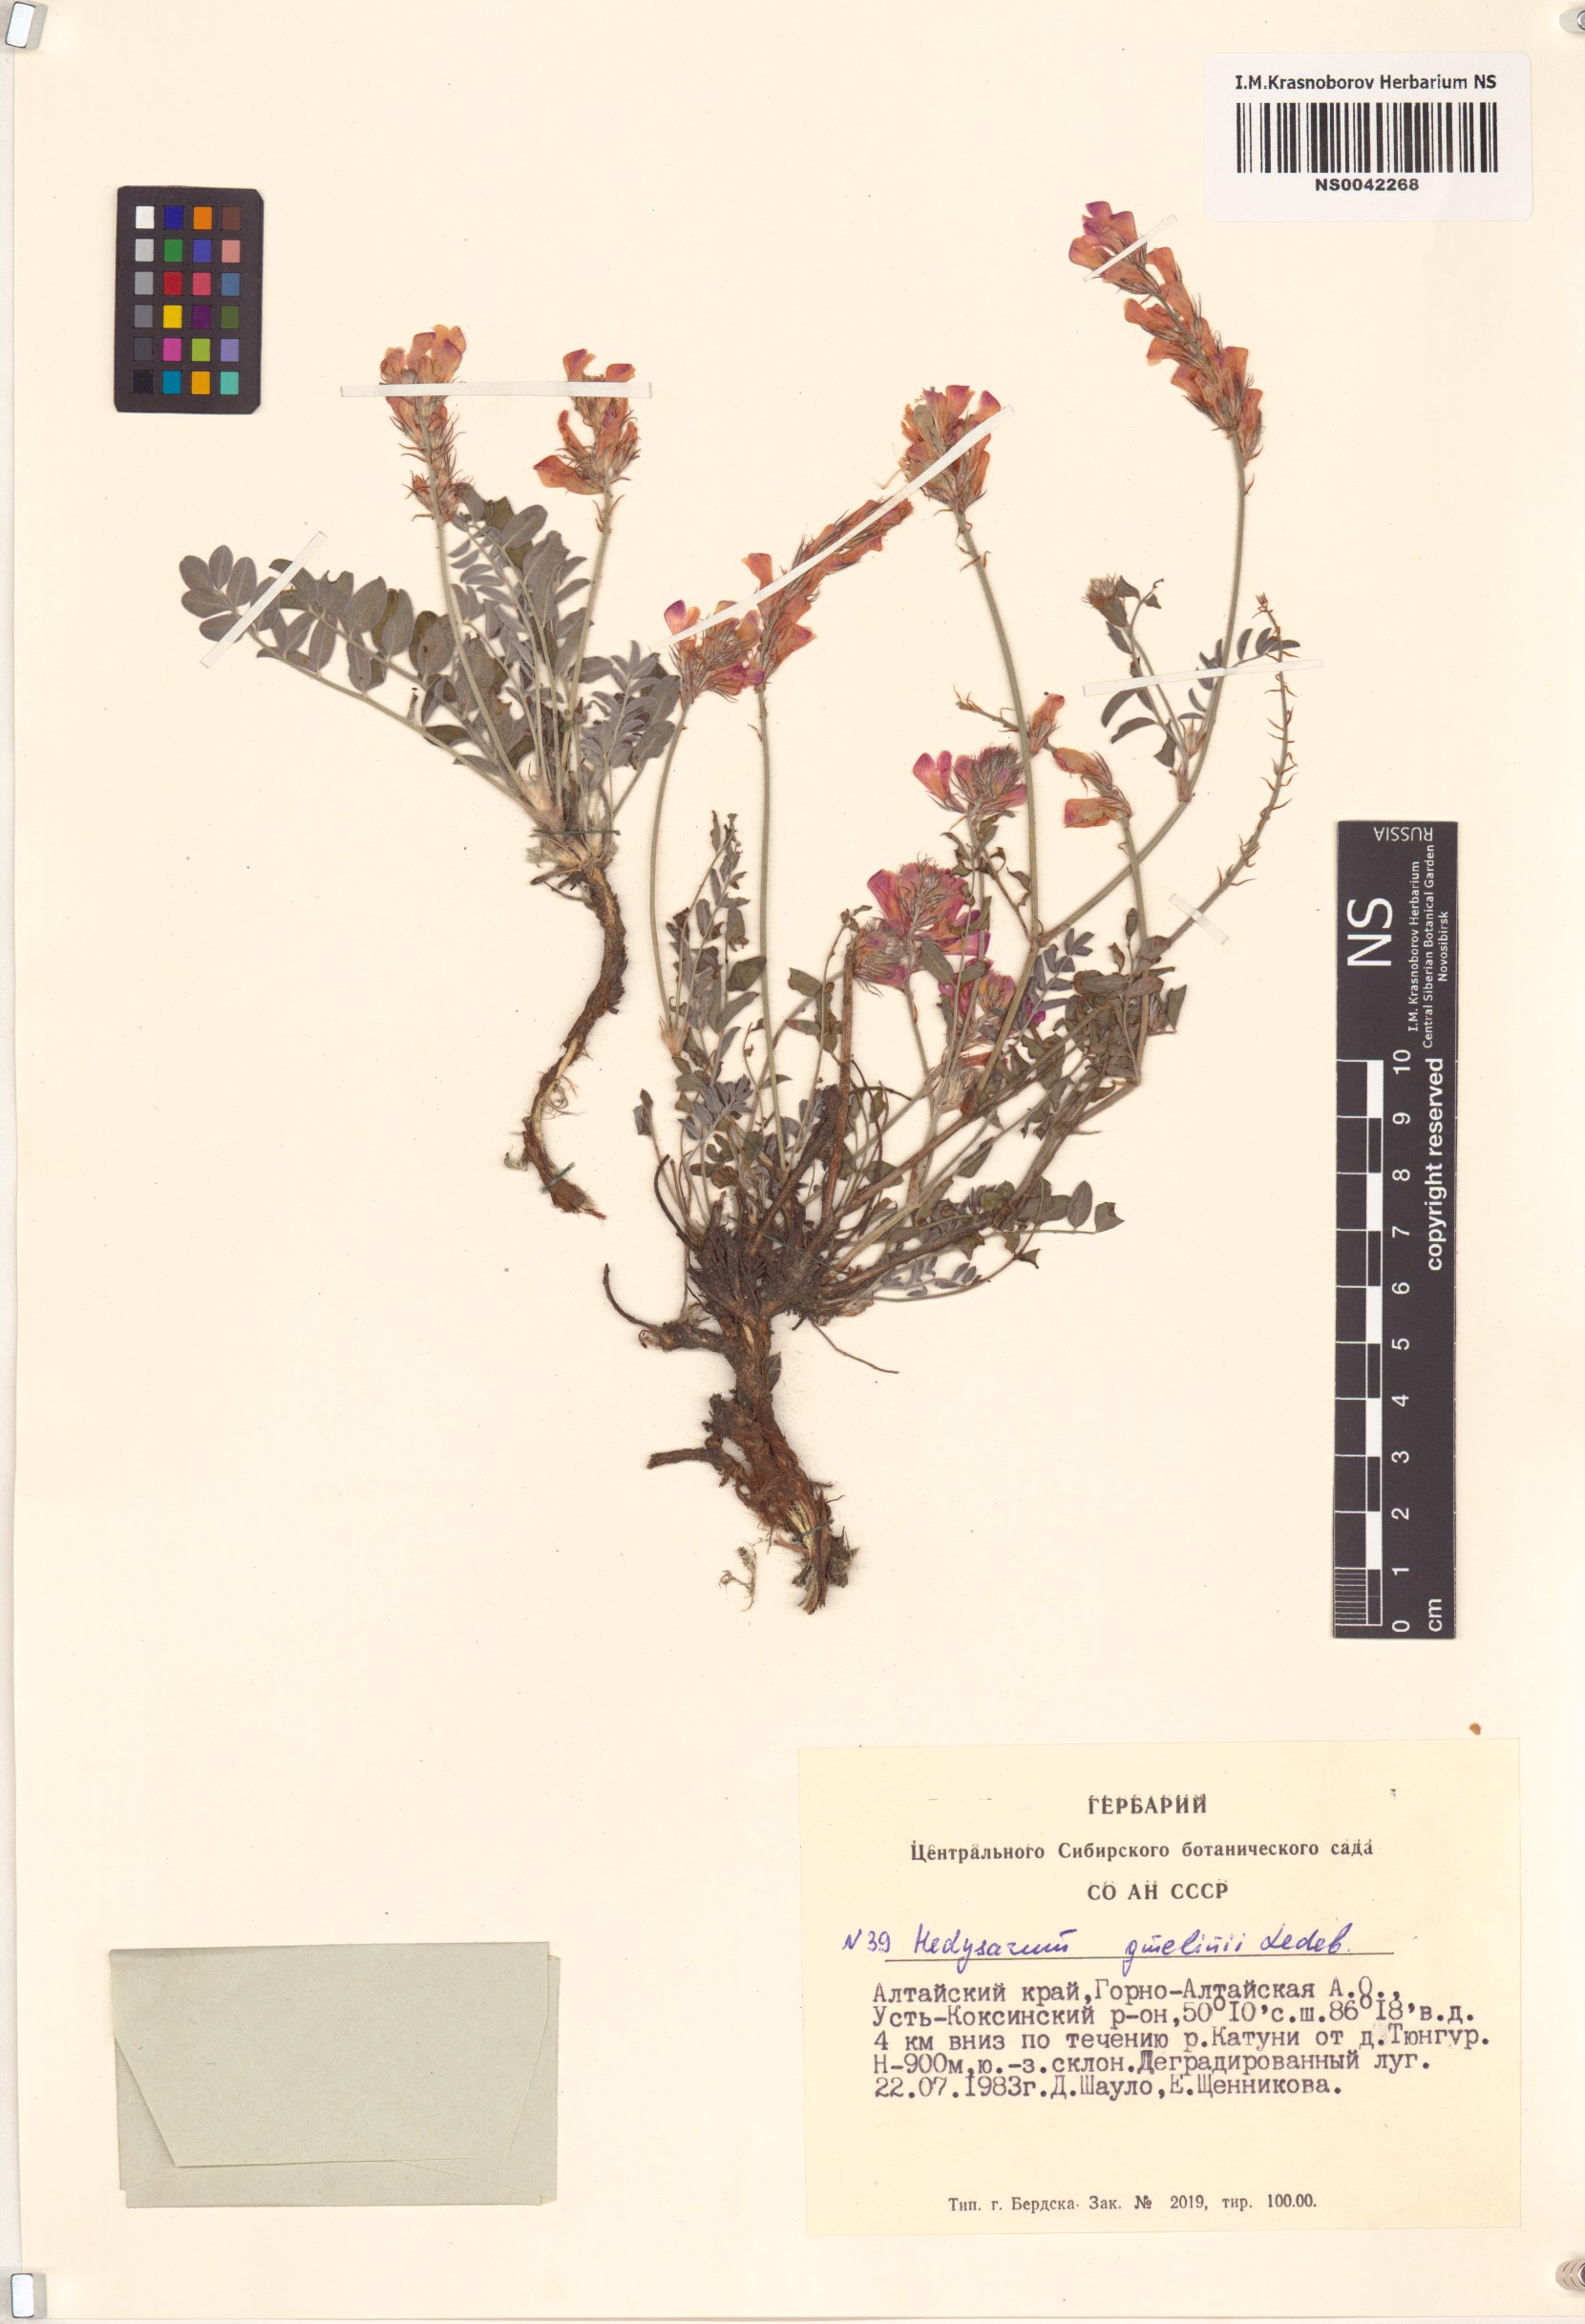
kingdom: Plantae
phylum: Tracheophyta
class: Magnoliopsida
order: Fabales
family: Fabaceae
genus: Hedysarum
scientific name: Hedysarum gmelinii
